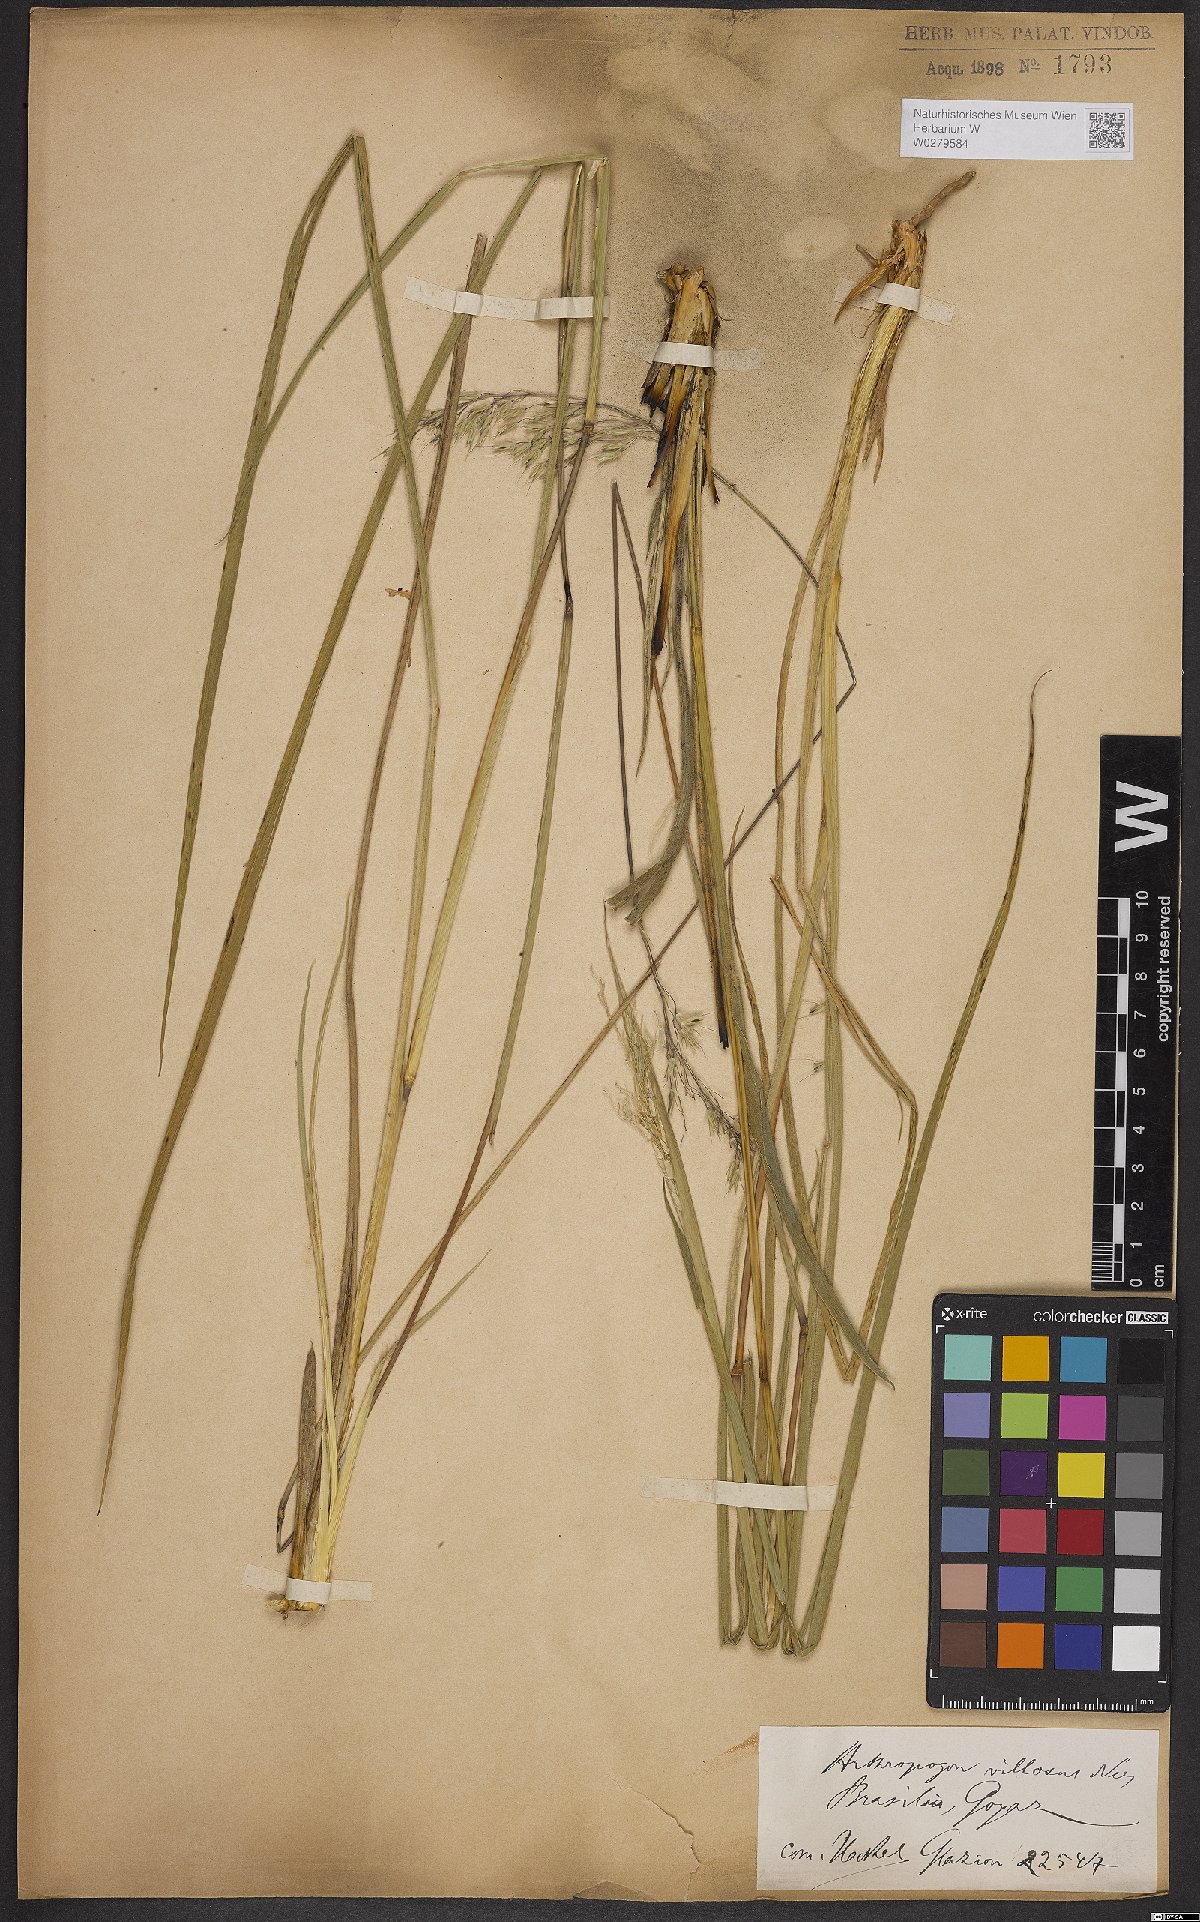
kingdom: Plantae
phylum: Tracheophyta
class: Liliopsida
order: Poales
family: Poaceae
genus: Arthropogon
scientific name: Arthropogon villosus
